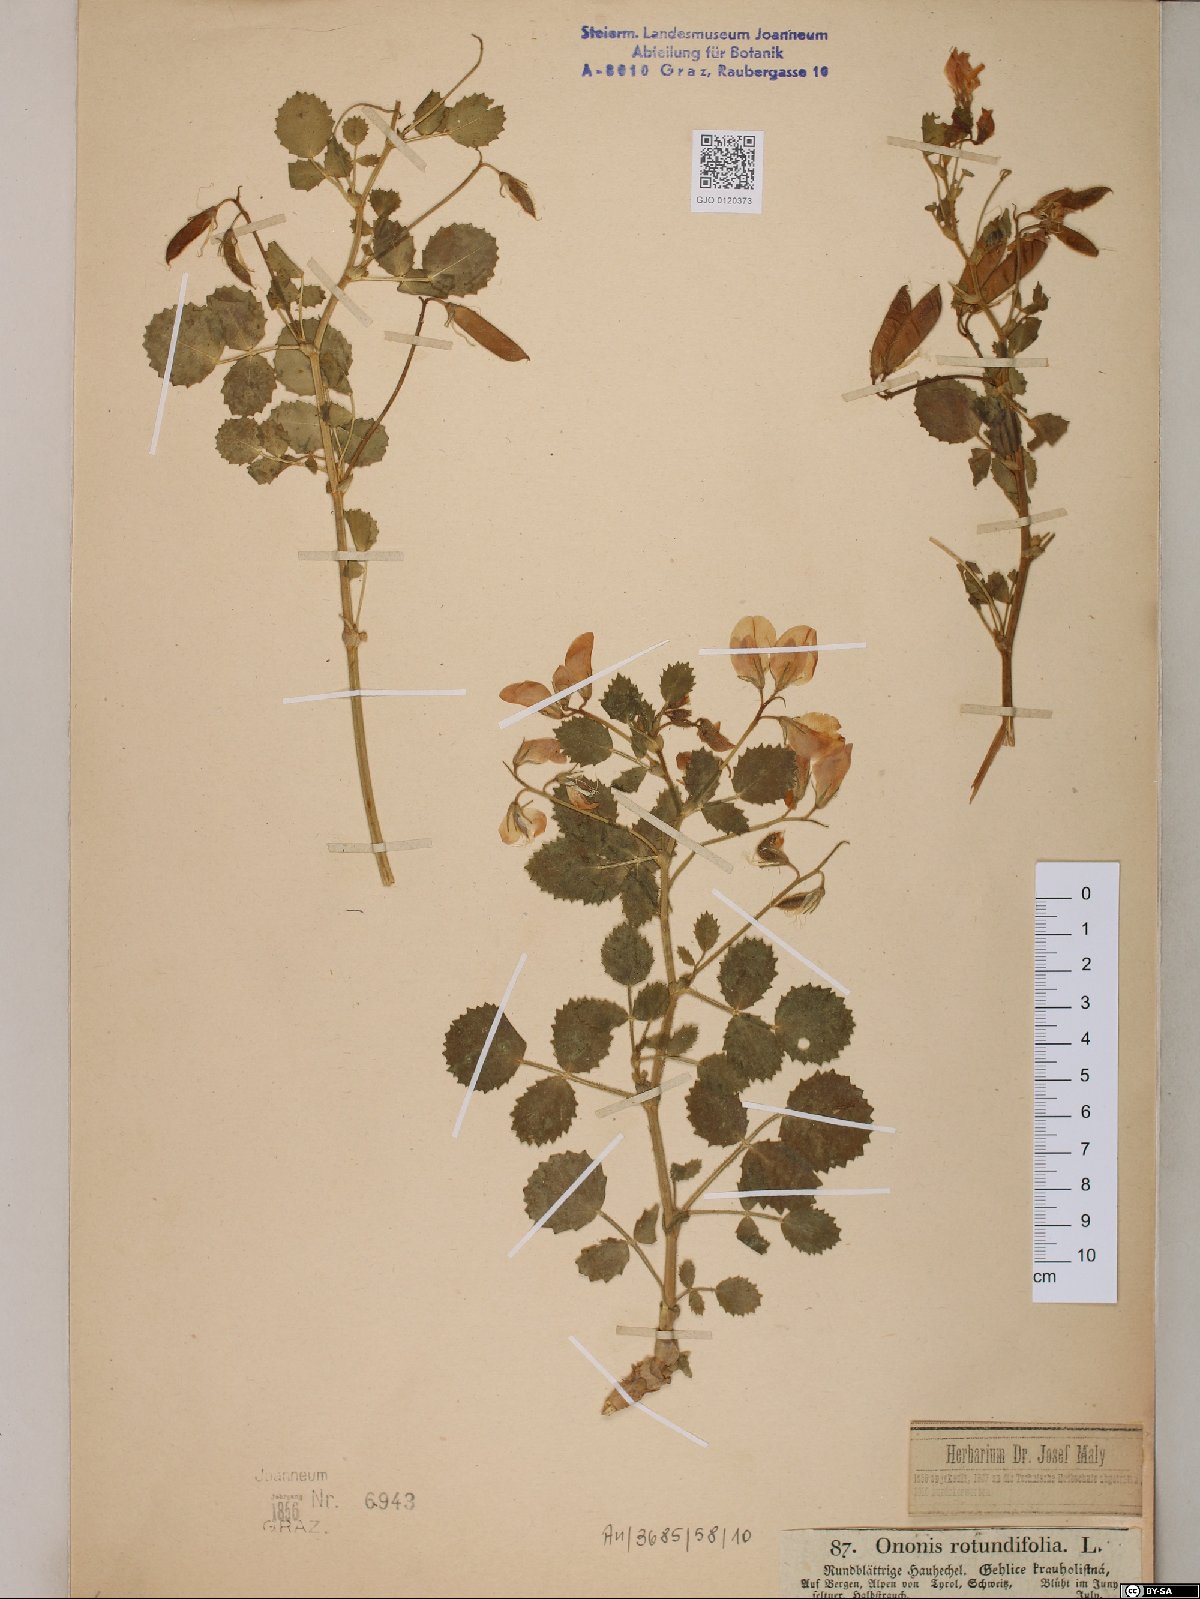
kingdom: Plantae
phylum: Tracheophyta
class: Magnoliopsida
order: Fabales
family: Fabaceae
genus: Ononis
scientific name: Ononis rotundifolia
